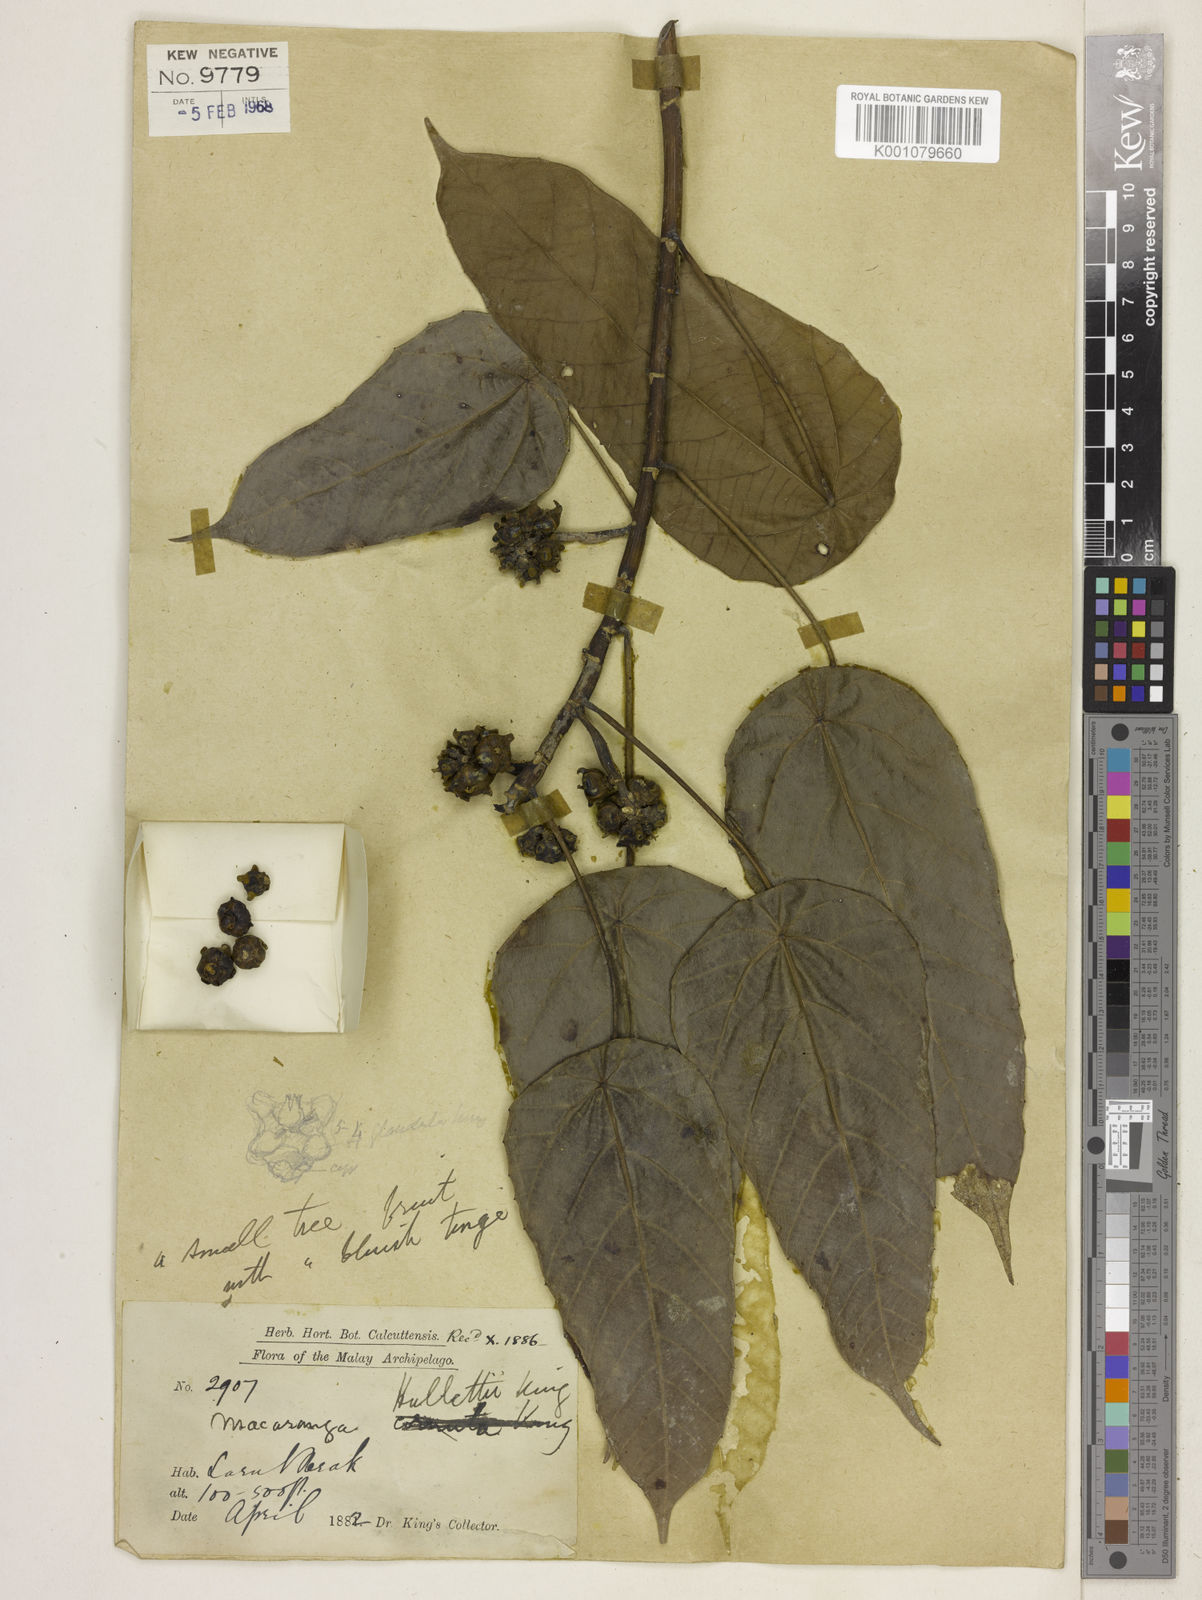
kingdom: Plantae
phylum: Tracheophyta
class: Magnoliopsida
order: Malpighiales
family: Euphorbiaceae
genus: Macaranga
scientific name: Macaranga hullettii
